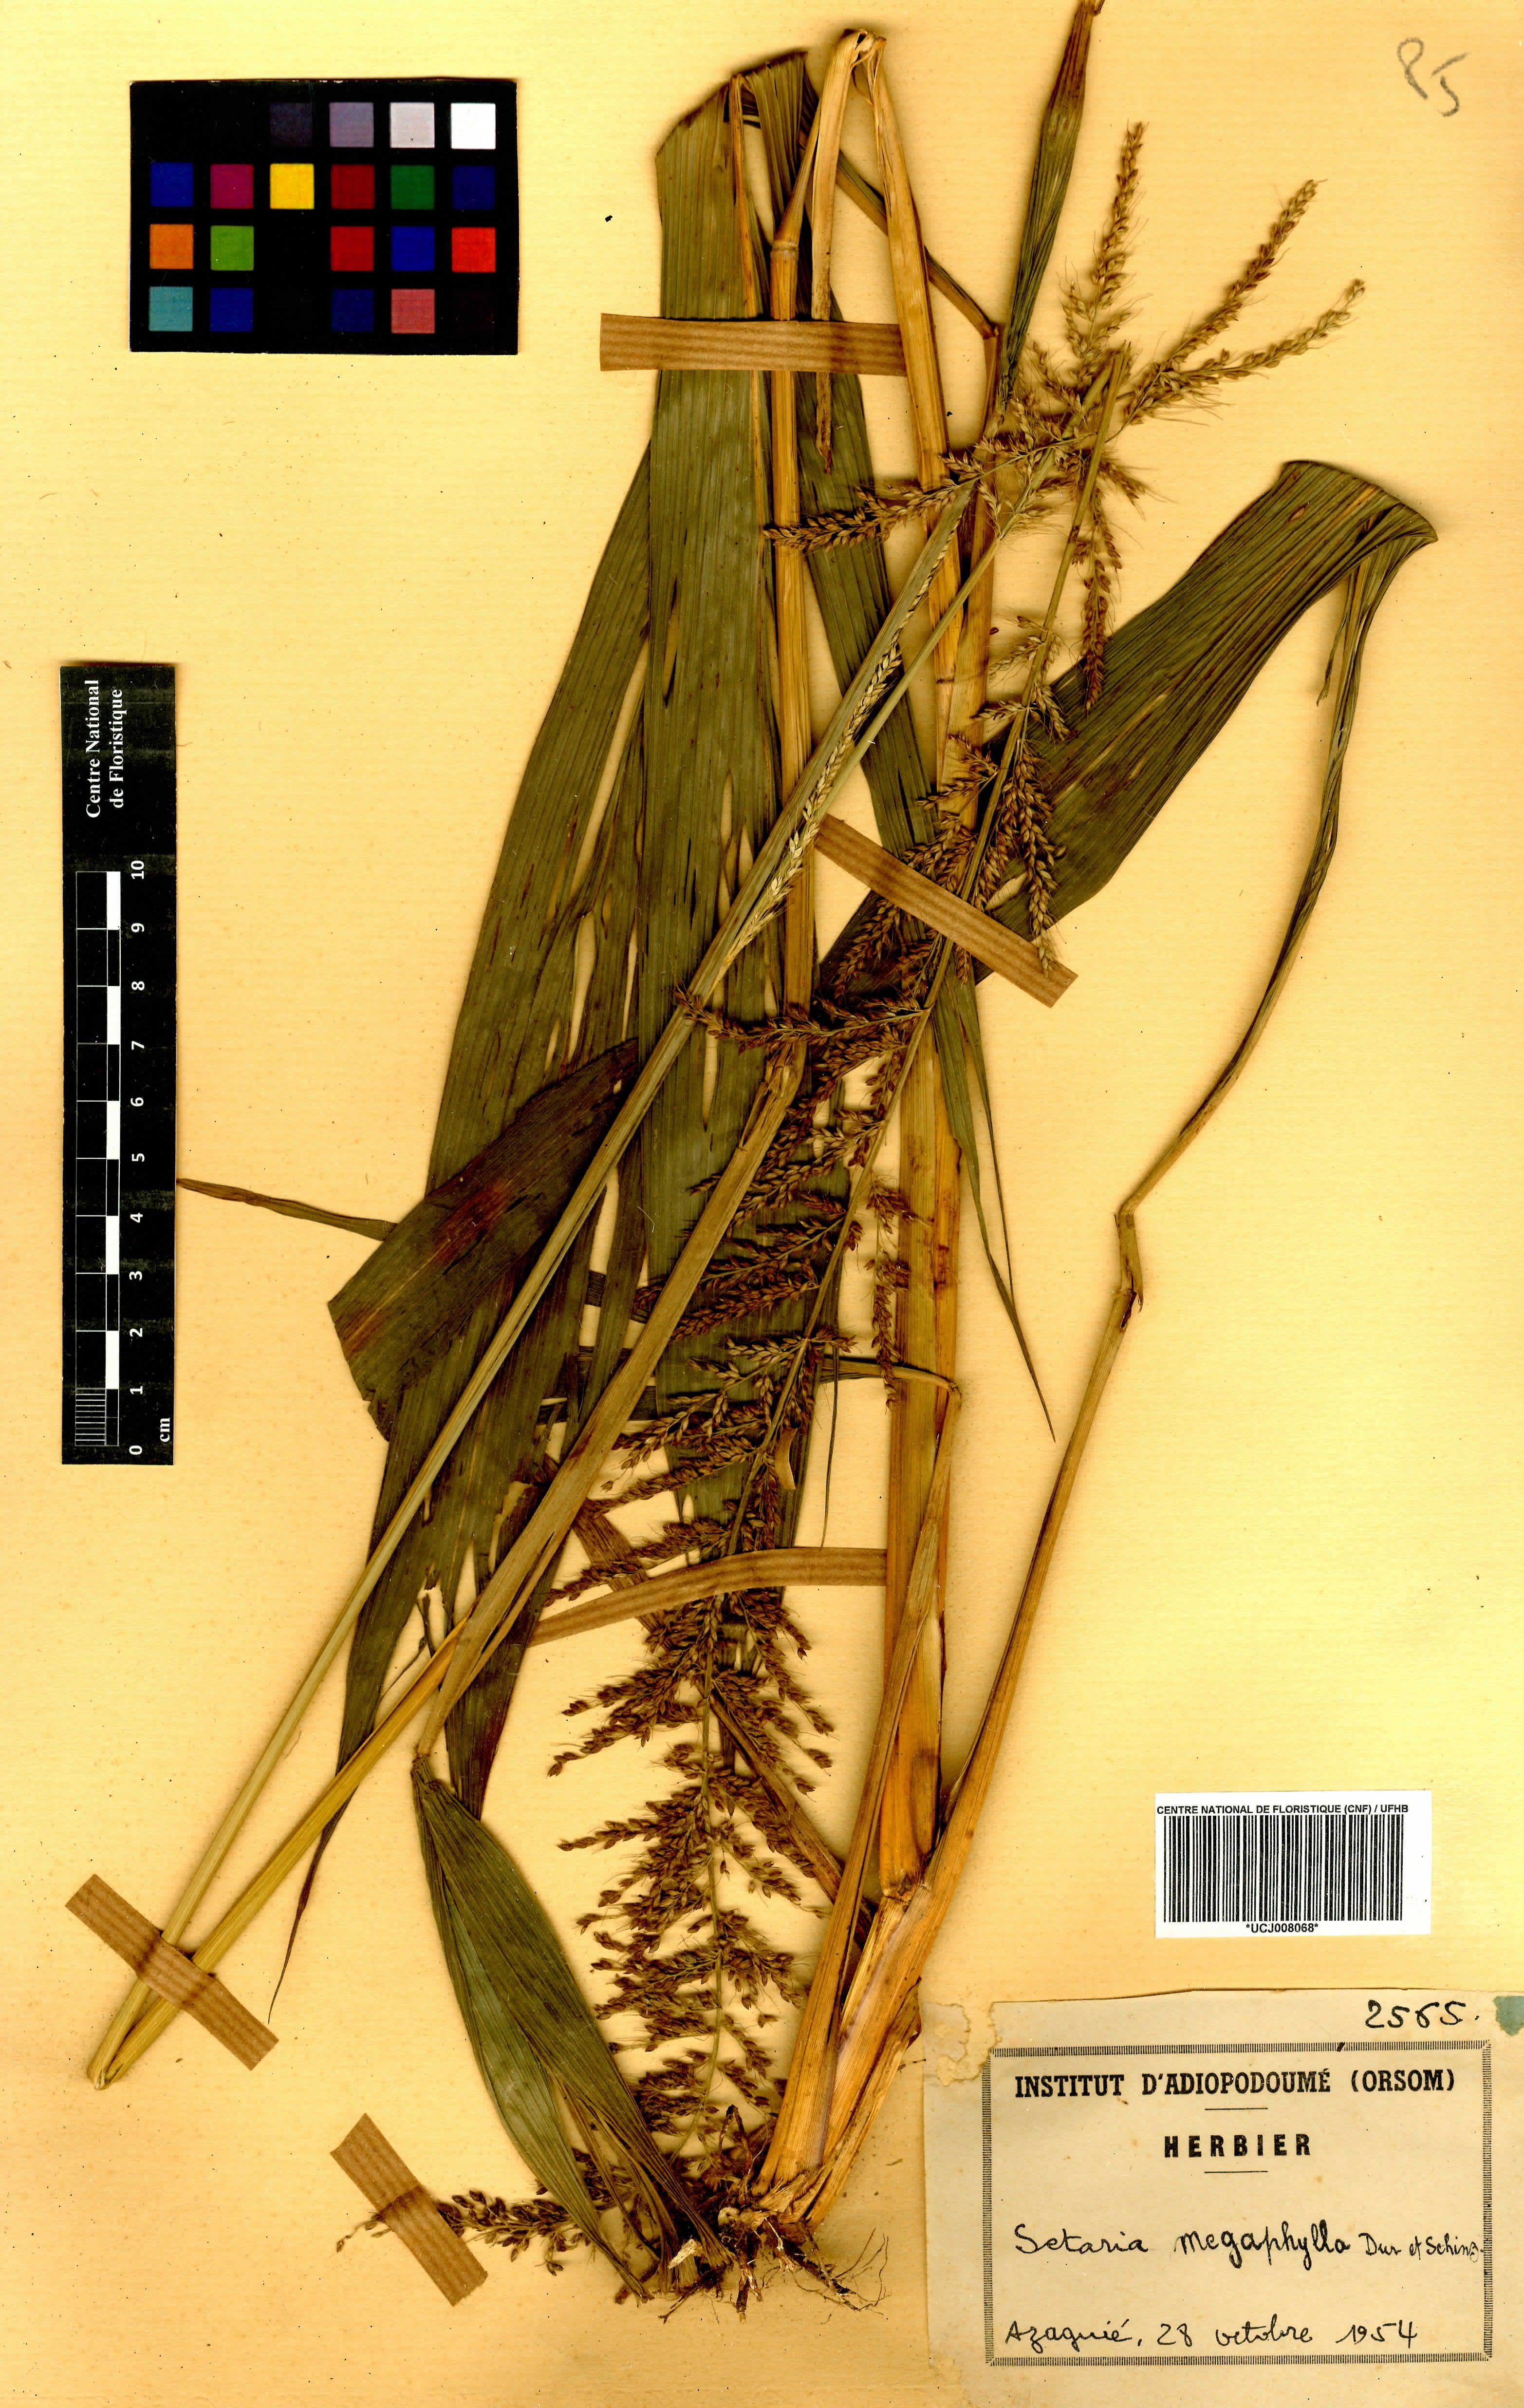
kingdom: Plantae
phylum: Tracheophyta
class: Liliopsida
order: Poales
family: Poaceae
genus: Setaria
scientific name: Setaria megaphylla
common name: Bigleaf bristlegrass
